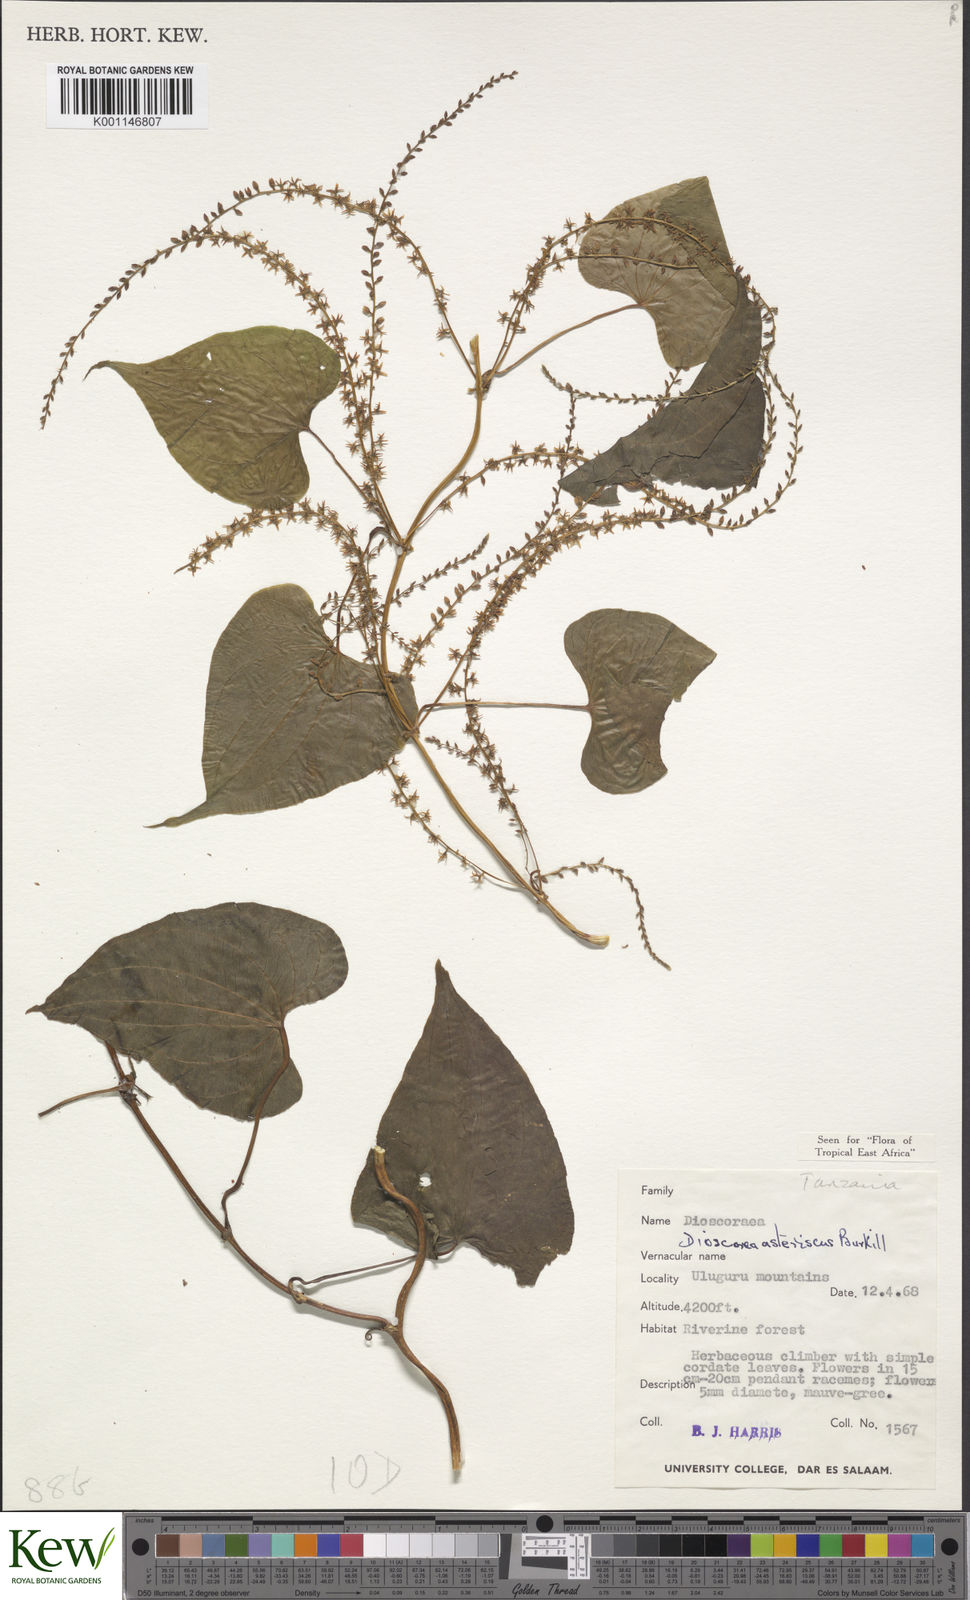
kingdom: Plantae
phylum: Tracheophyta
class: Liliopsida
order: Dioscoreales
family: Dioscoreaceae
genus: Dioscorea
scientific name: Dioscorea asteriscus
